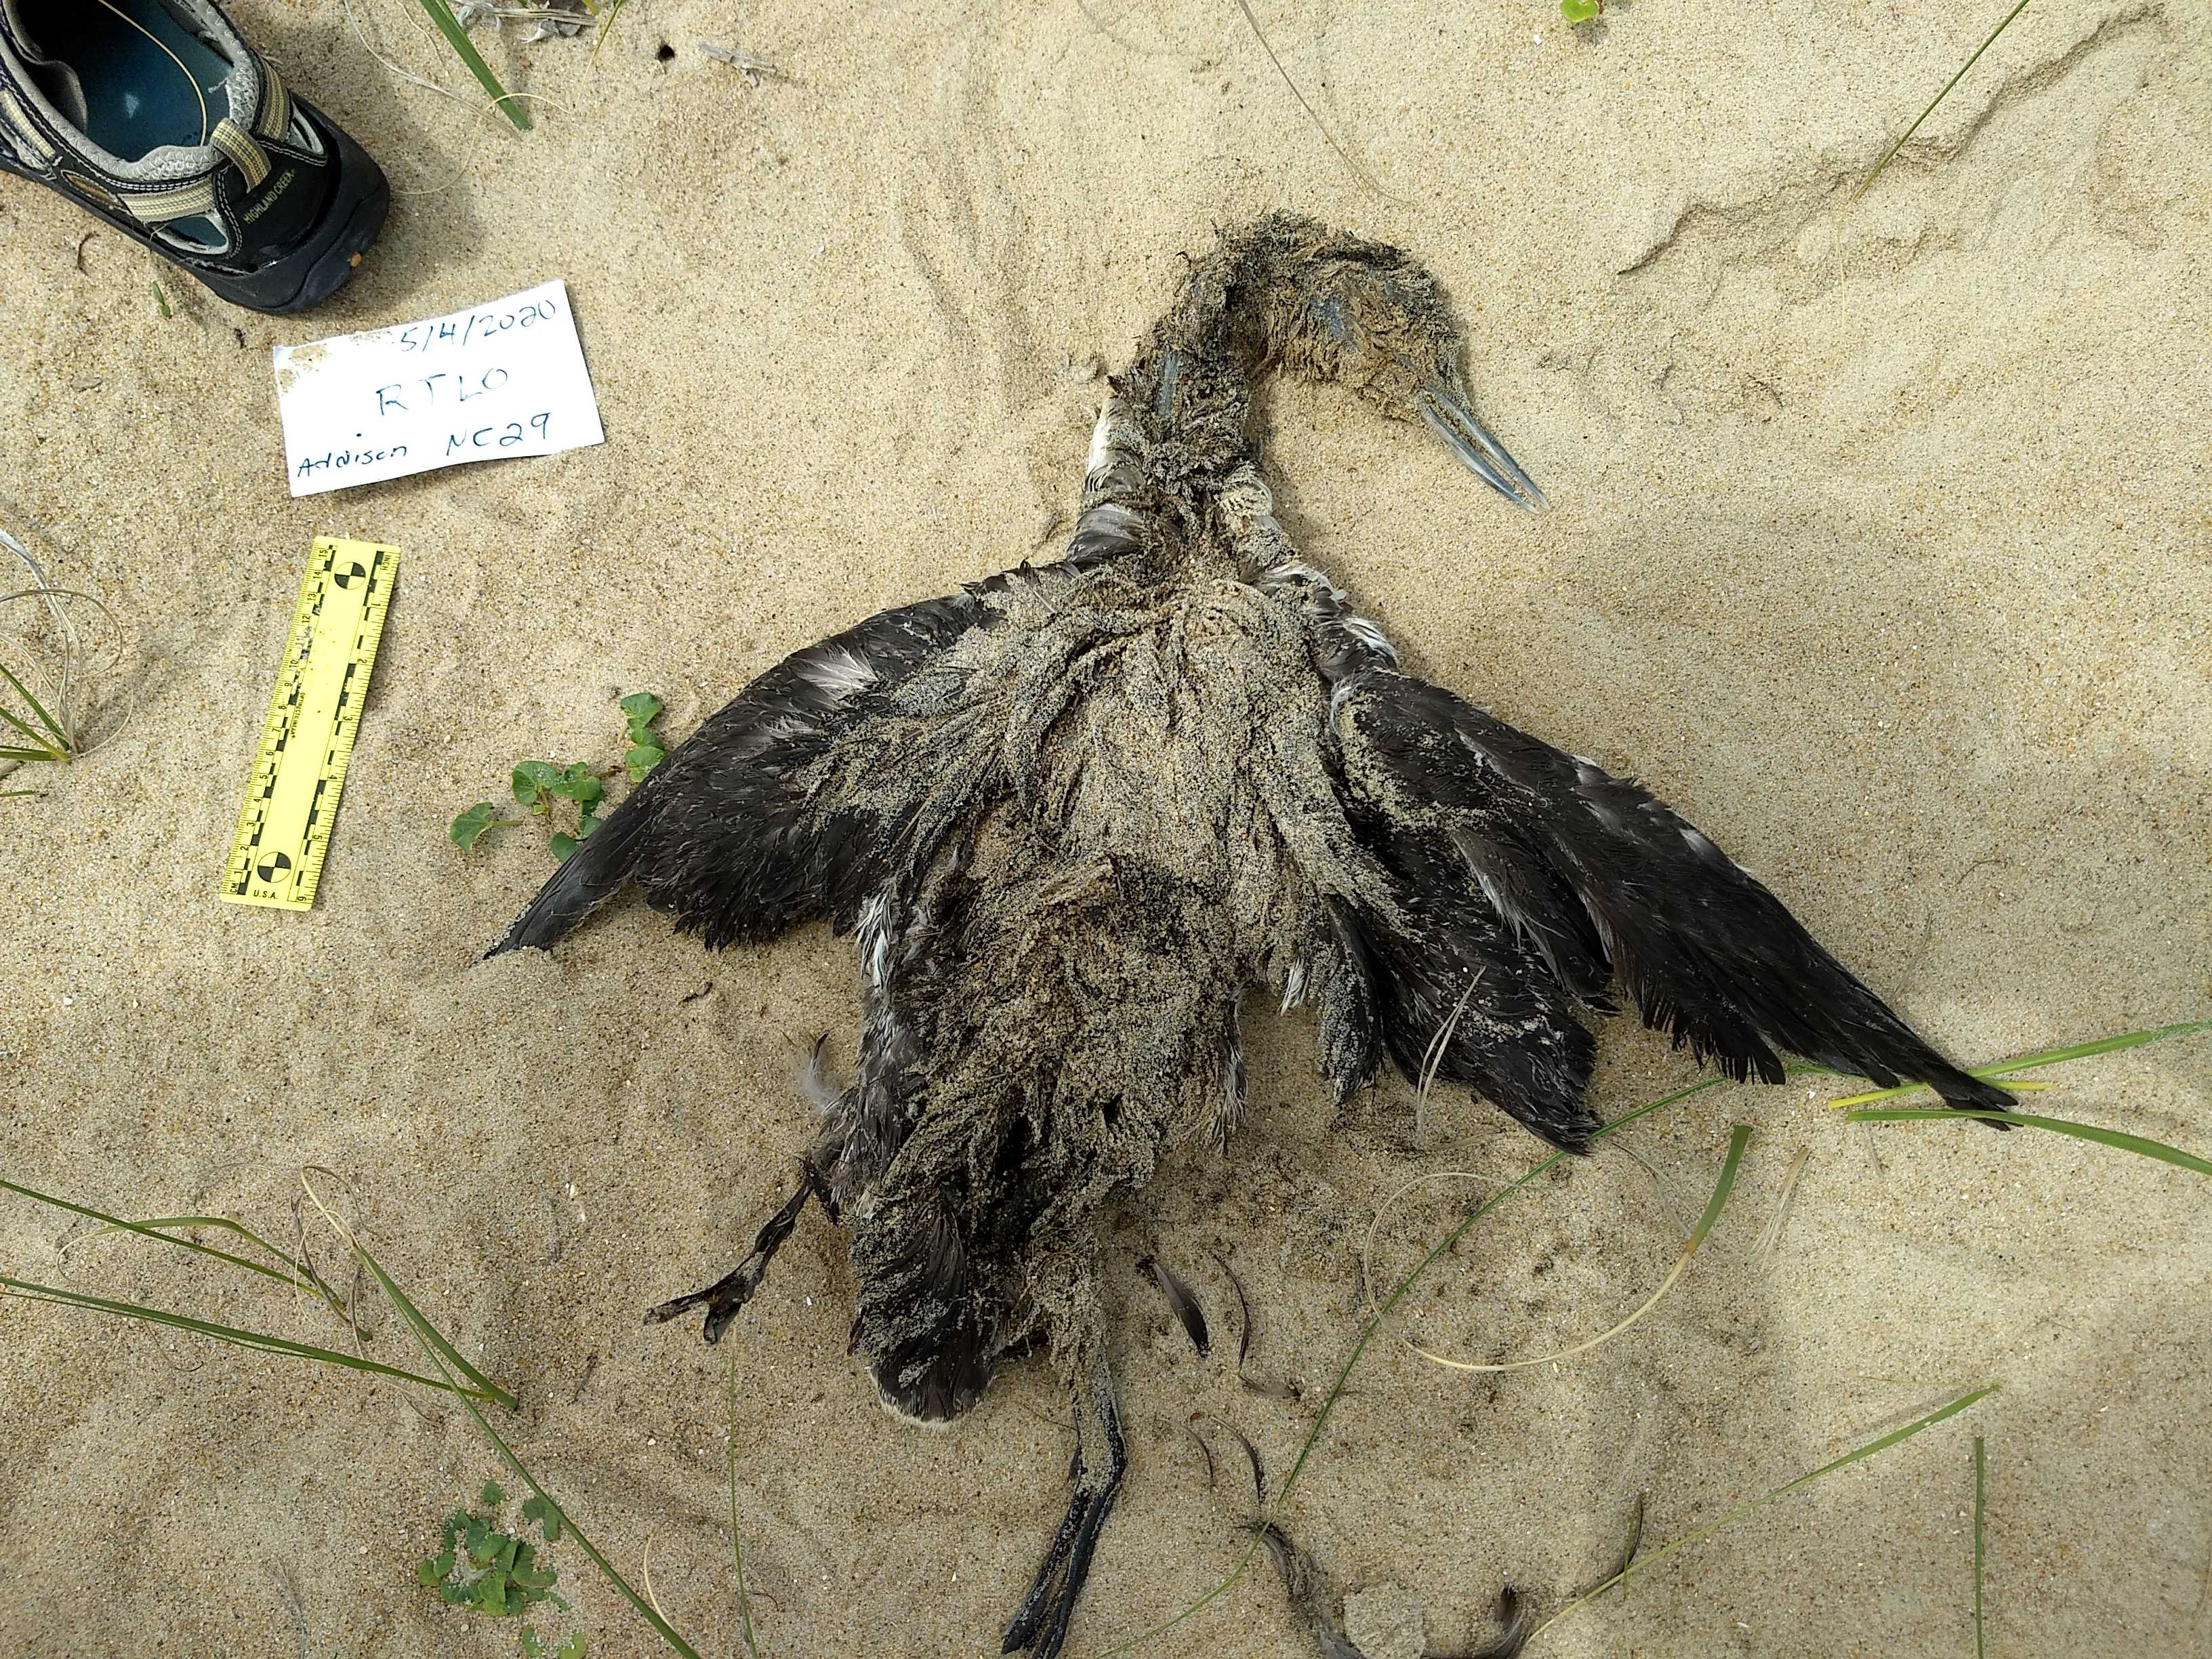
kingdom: Animalia
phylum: Chordata
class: Aves
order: Gaviiformes
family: Gaviidae
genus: Gavia
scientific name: Gavia stellata
